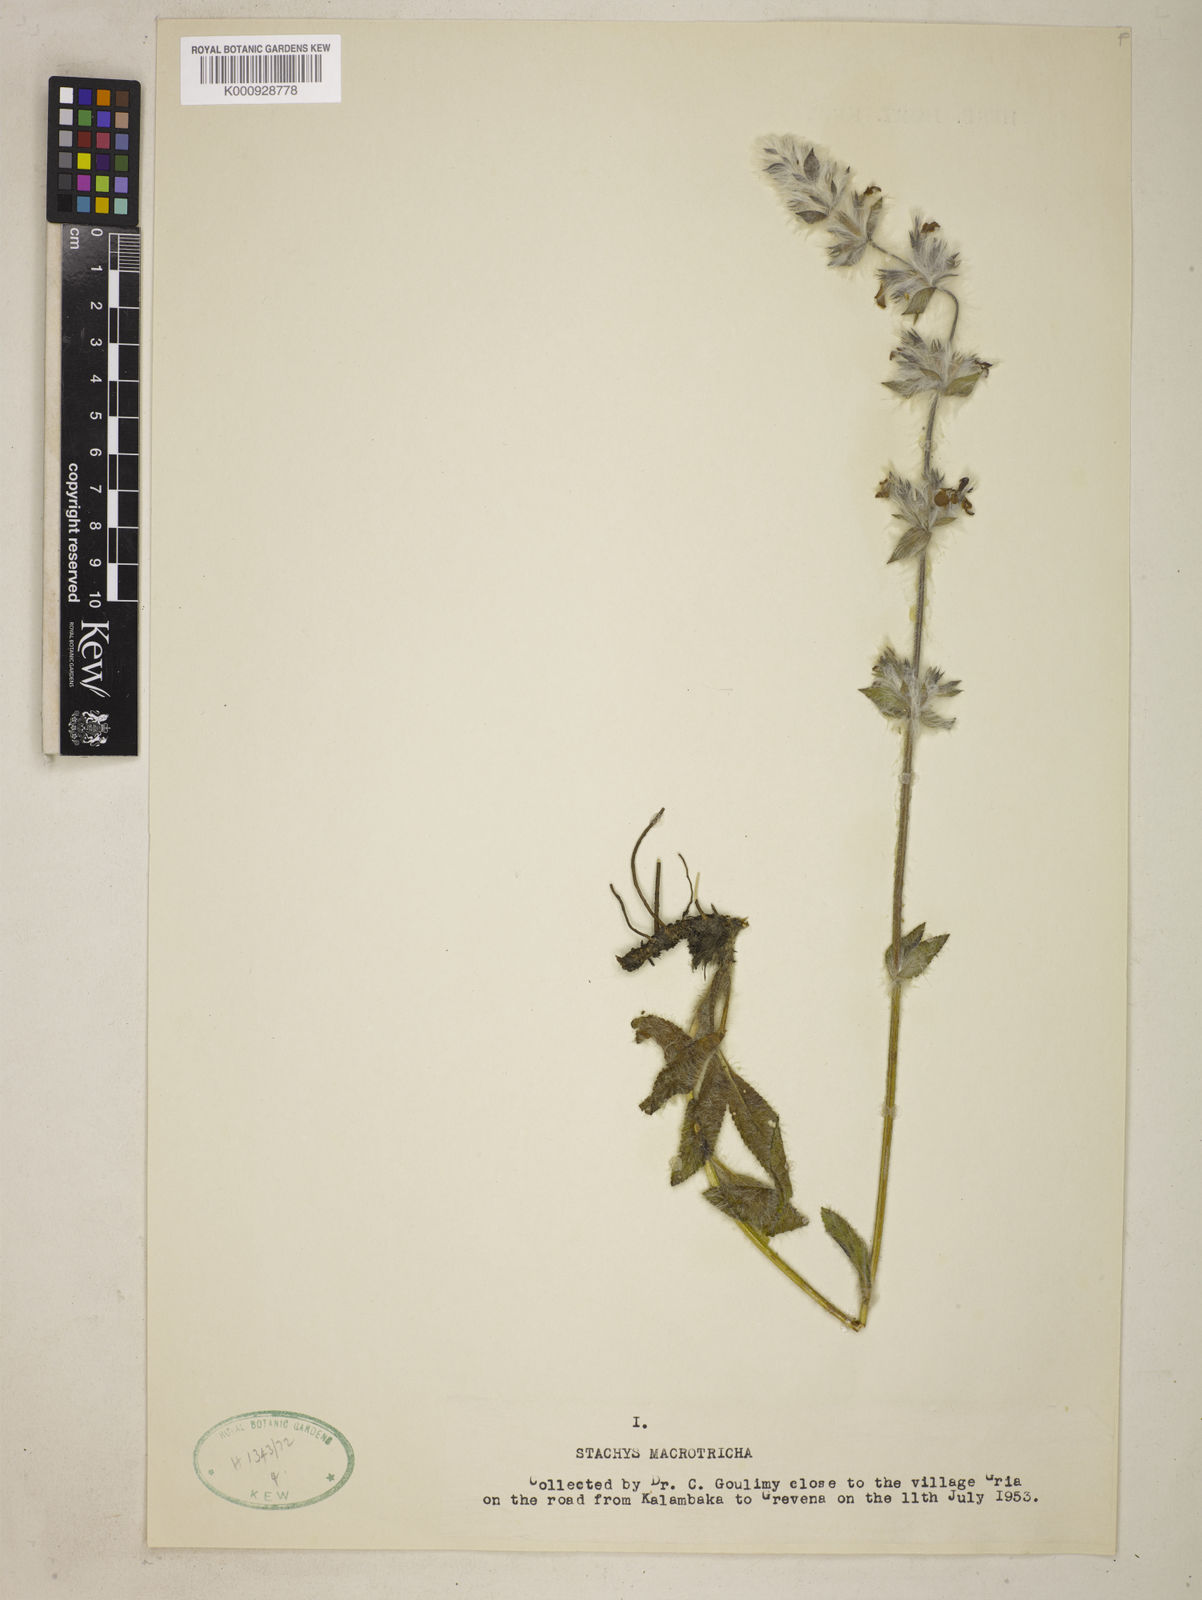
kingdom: Plantae
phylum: Tracheophyta
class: Magnoliopsida
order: Lamiales
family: Lamiaceae
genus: Stachys
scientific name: Stachys macrotricha
